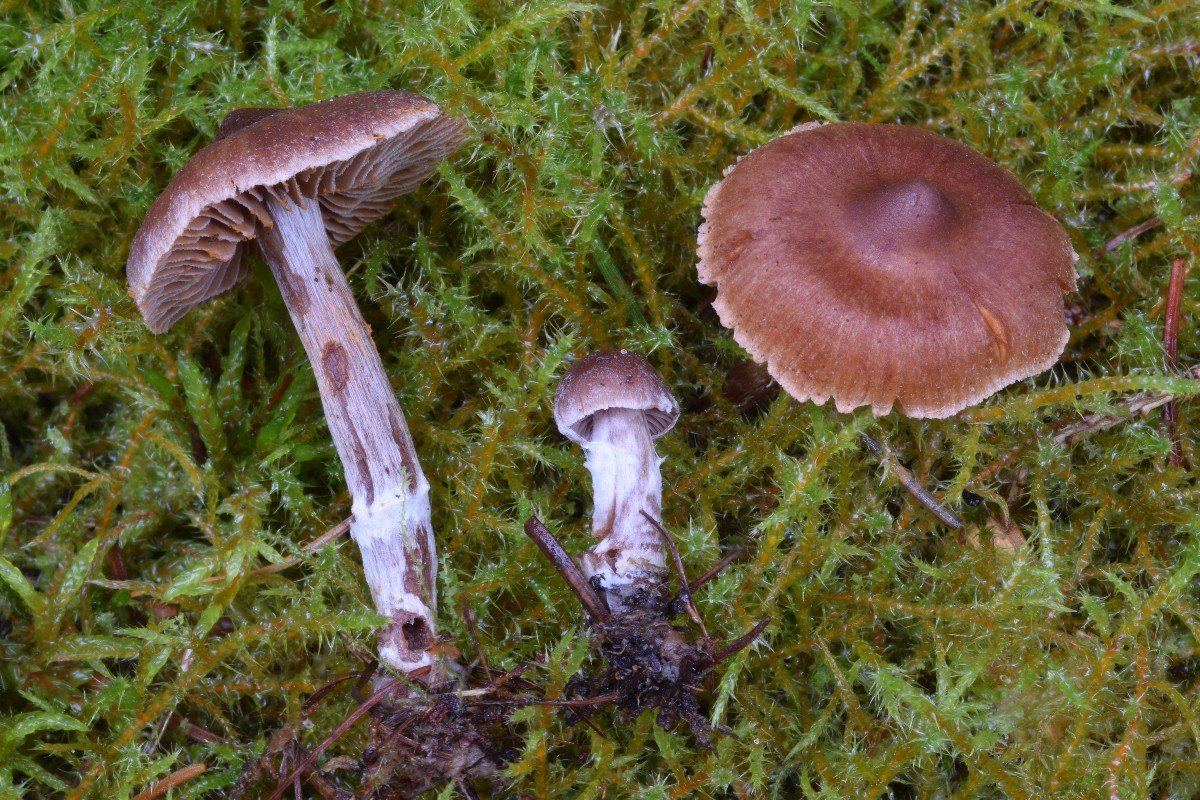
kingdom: Fungi
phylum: Basidiomycota
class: Agaricomycetes
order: Agaricales
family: Cortinariaceae
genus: Cortinarius
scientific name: Cortinarius nigrocuspidatus
